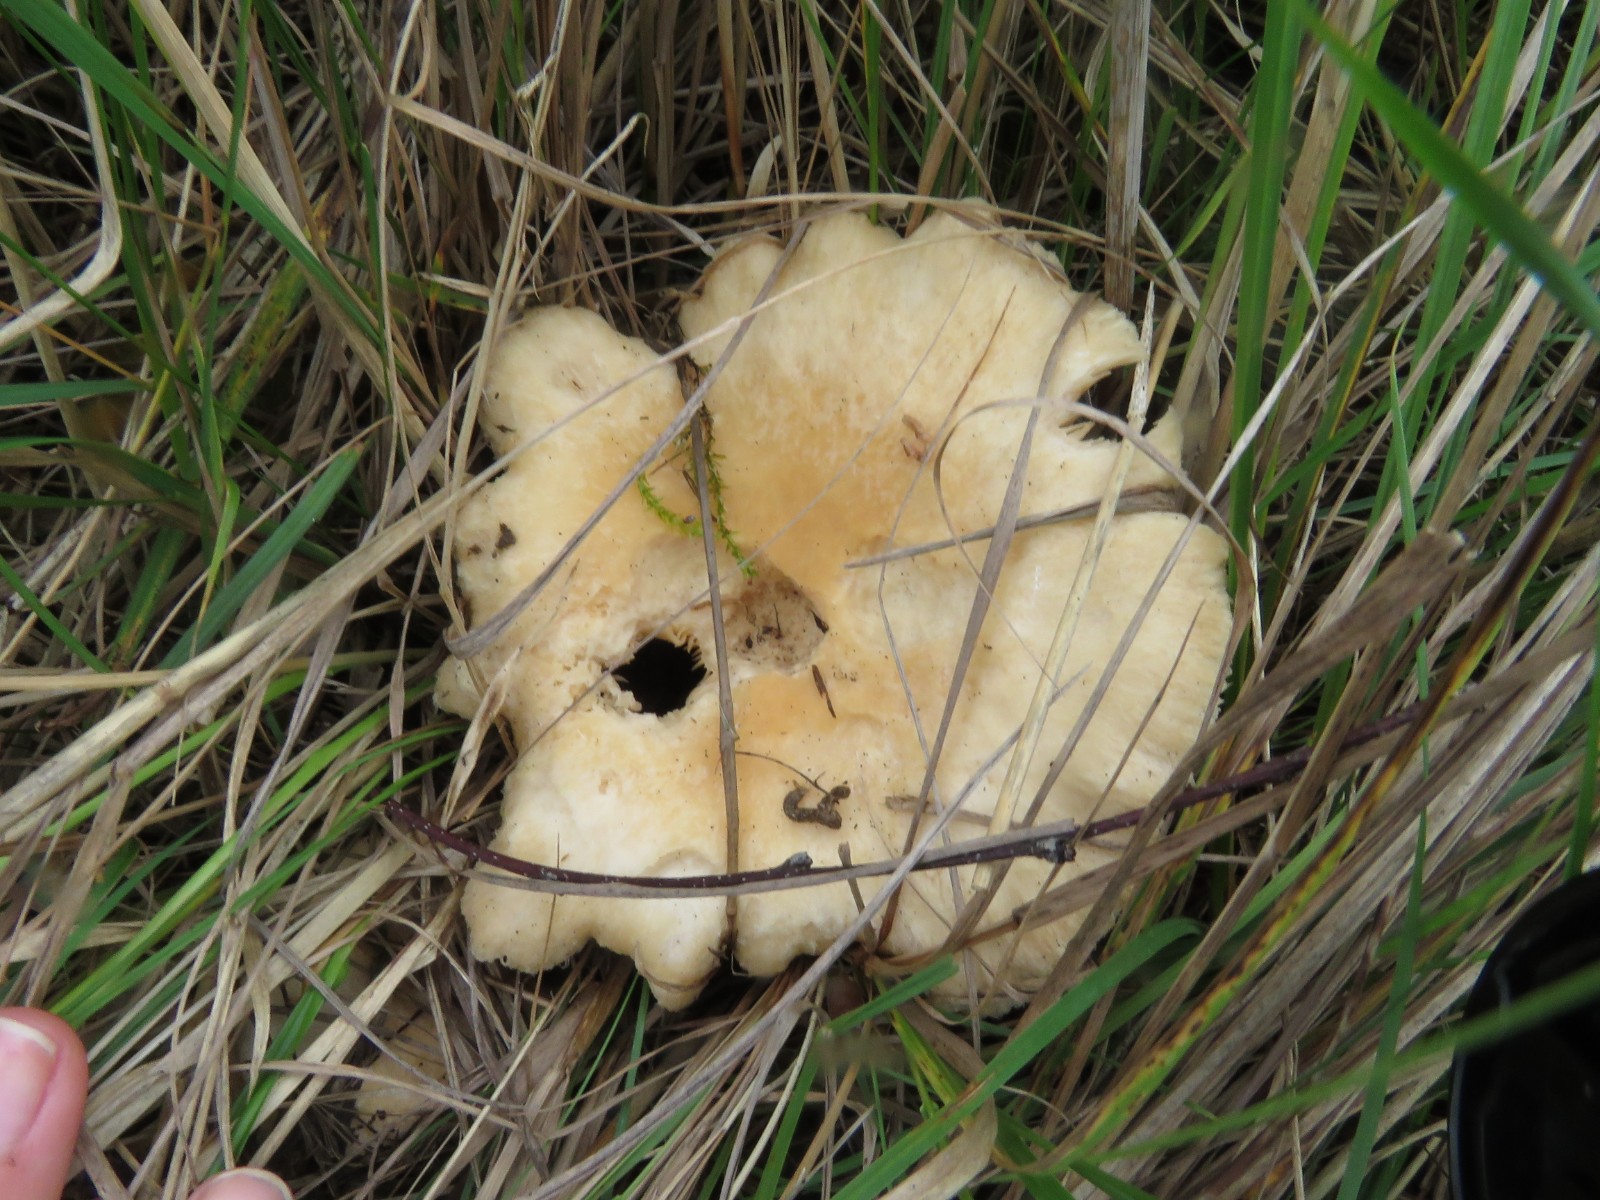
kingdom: Fungi
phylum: Basidiomycota
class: Agaricomycetes
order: Russulales
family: Russulaceae
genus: Lactarius
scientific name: Lactarius pubescens
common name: dunet mælkehat
